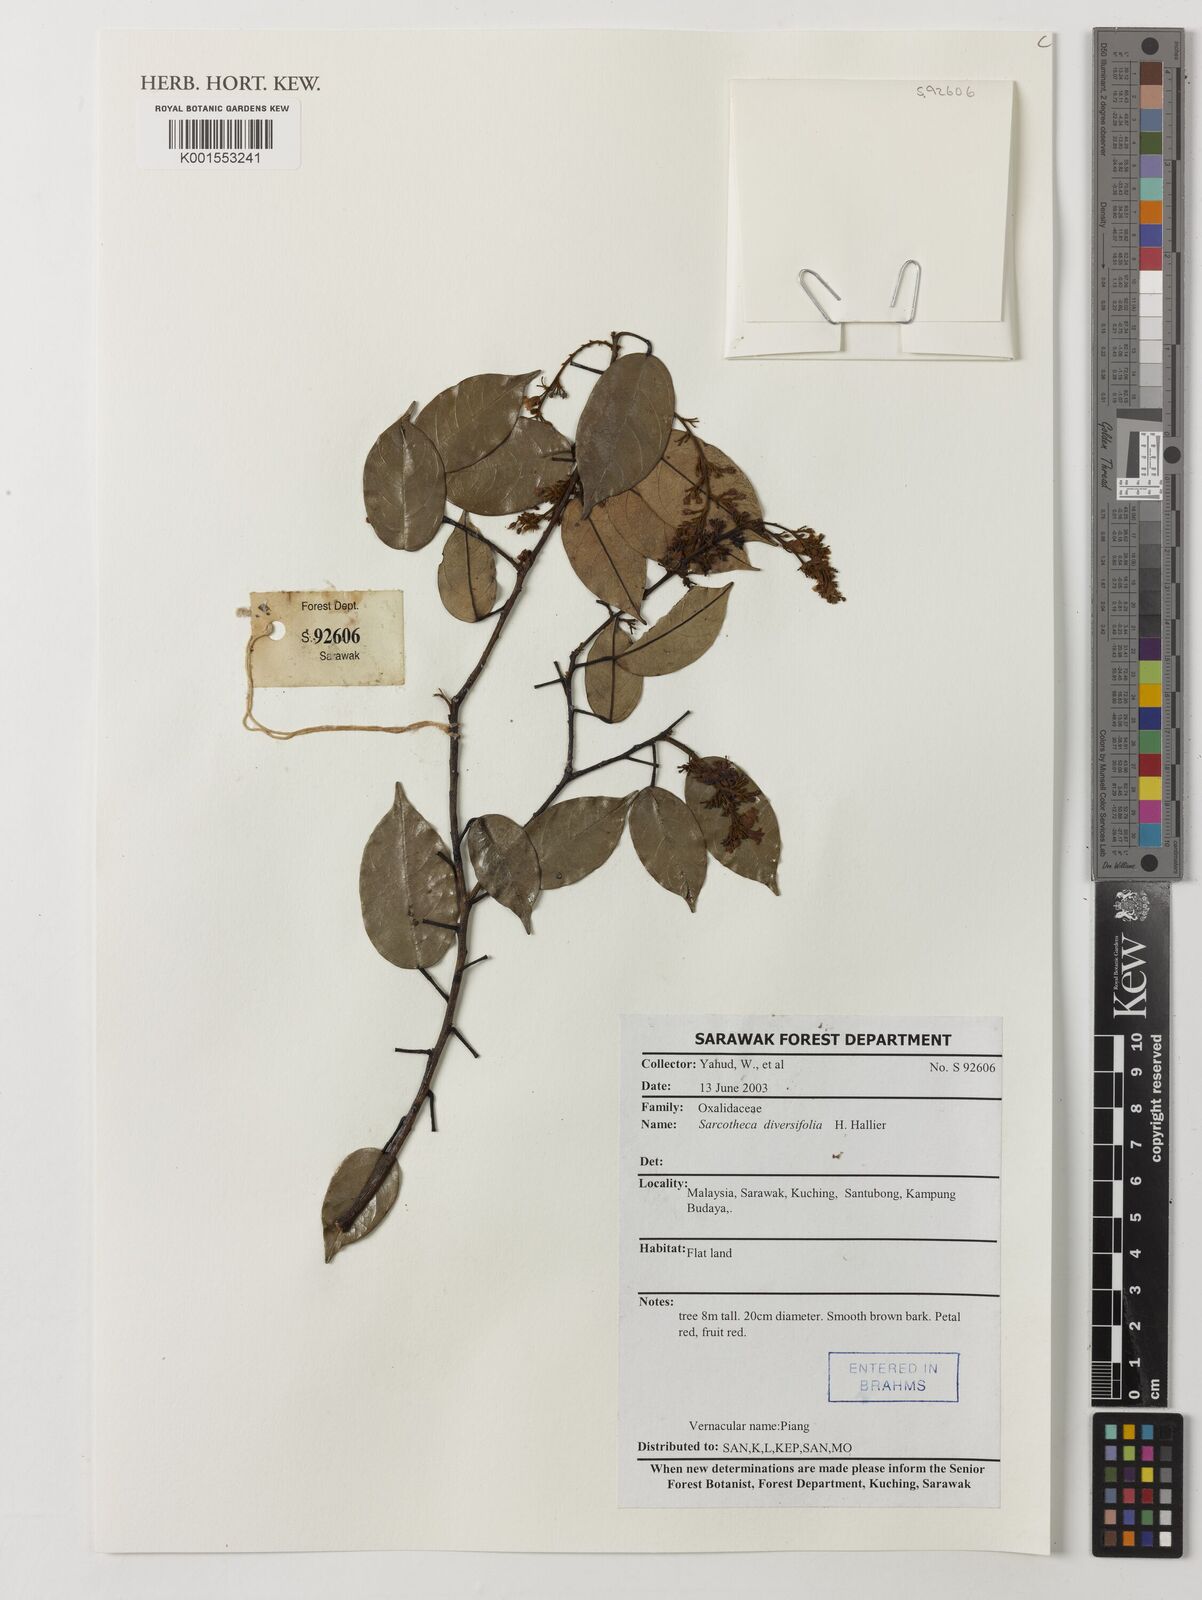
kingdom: Plantae
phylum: Tracheophyta
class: Magnoliopsida
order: Oxalidales
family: Oxalidaceae
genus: Sarcotheca
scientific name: Sarcotheca diversifolia
